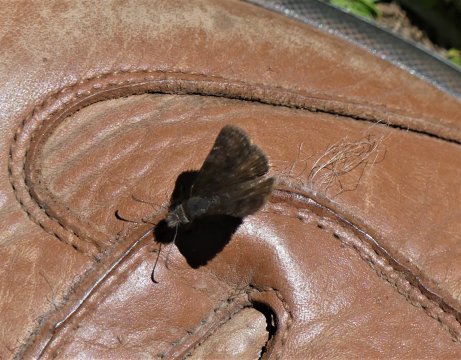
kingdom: Animalia
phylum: Arthropoda
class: Insecta
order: Lepidoptera
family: Hesperiidae
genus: Gesta
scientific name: Gesta
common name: Persius Duskywing
